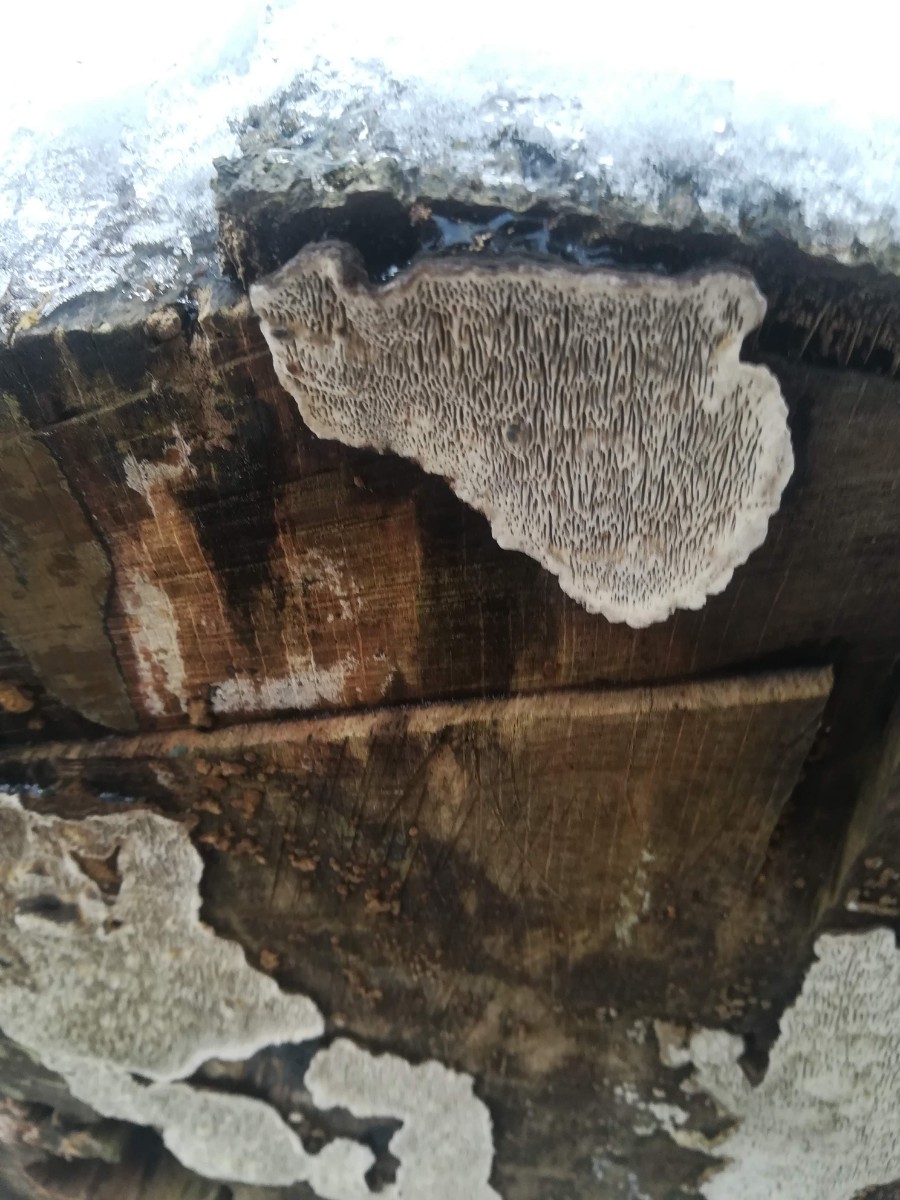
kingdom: Fungi
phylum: Basidiomycota
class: Agaricomycetes
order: Polyporales
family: Polyporaceae
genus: Podofomes
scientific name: Podofomes mollis
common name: blød begporesvamp
